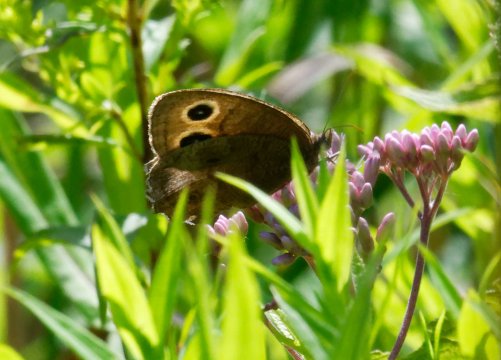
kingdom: Animalia
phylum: Arthropoda
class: Insecta
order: Lepidoptera
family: Nymphalidae
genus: Cercyonis
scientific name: Cercyonis pegala
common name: Common Wood-Nymph
